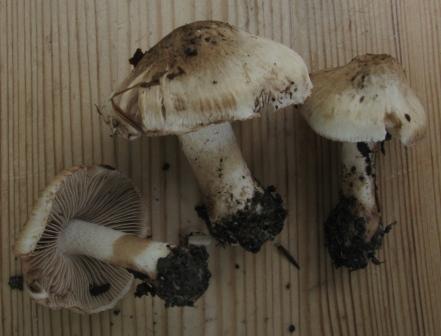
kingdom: Fungi
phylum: Basidiomycota
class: Agaricomycetes
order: Agaricales
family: Inocybaceae
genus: Inocybe
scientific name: Inocybe fraudans
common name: pæreduftende trævlhat
